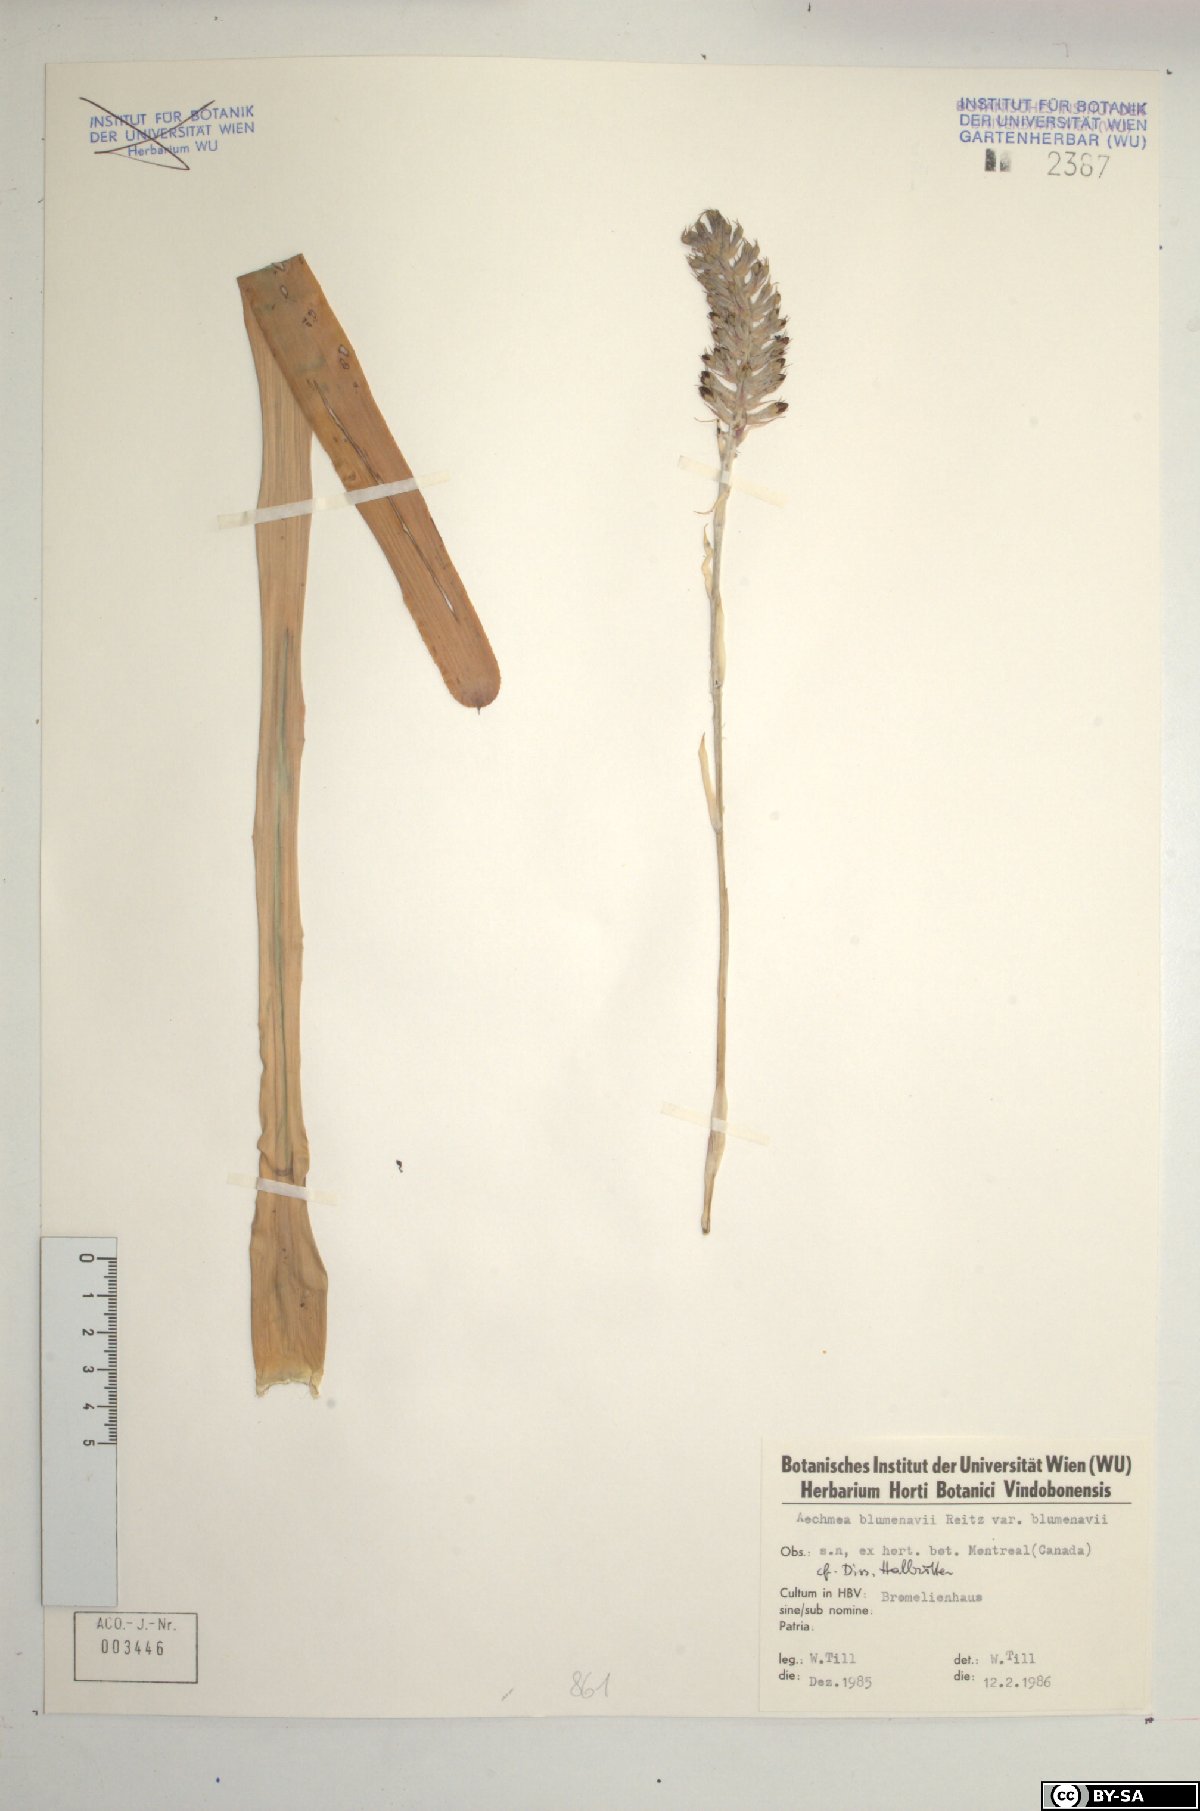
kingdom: Plantae
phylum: Tracheophyta
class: Liliopsida
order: Poales
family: Bromeliaceae
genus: Aechmea
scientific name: Aechmea blumenavii
